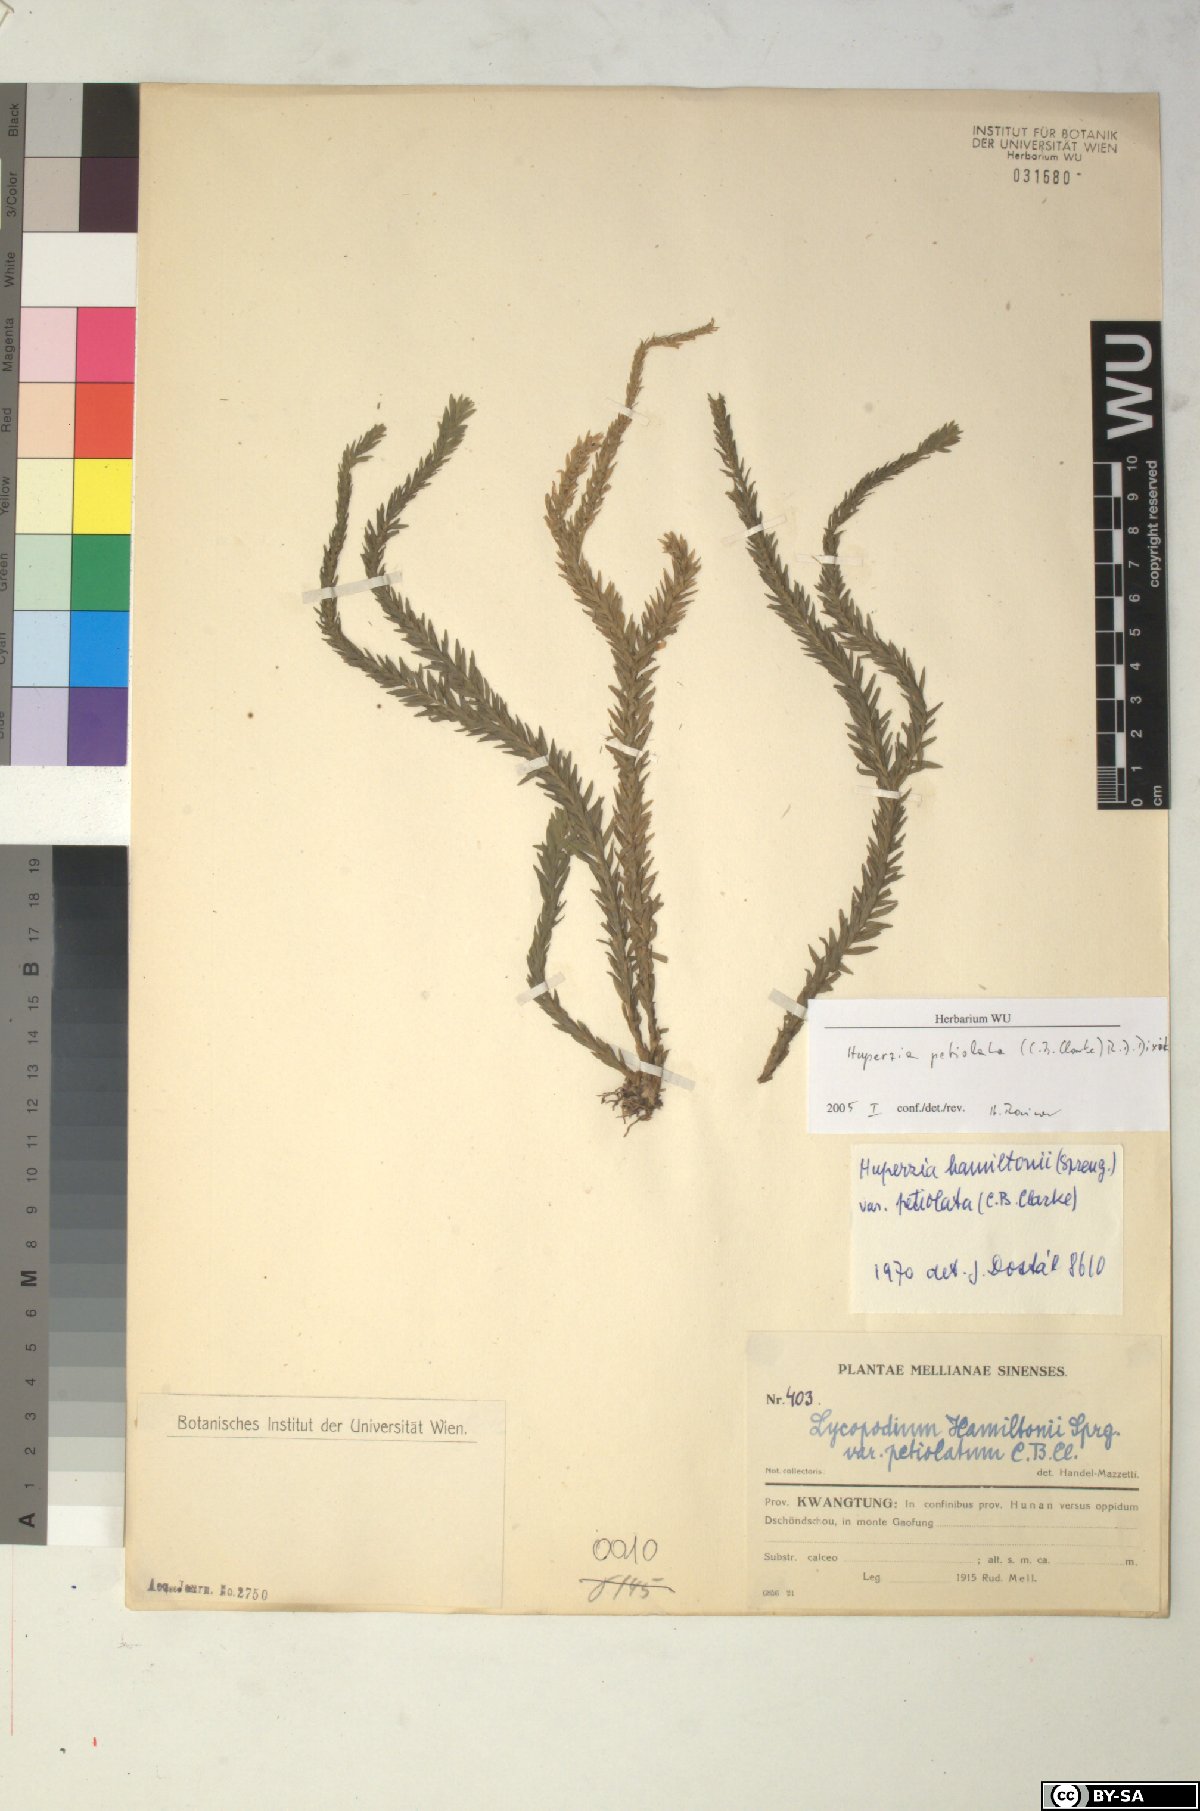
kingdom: Plantae
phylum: Tracheophyta
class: Lycopodiopsida
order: Lycopodiales
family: Lycopodiaceae
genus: Phlegmariurus
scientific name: Phlegmariurus hamiltonii
